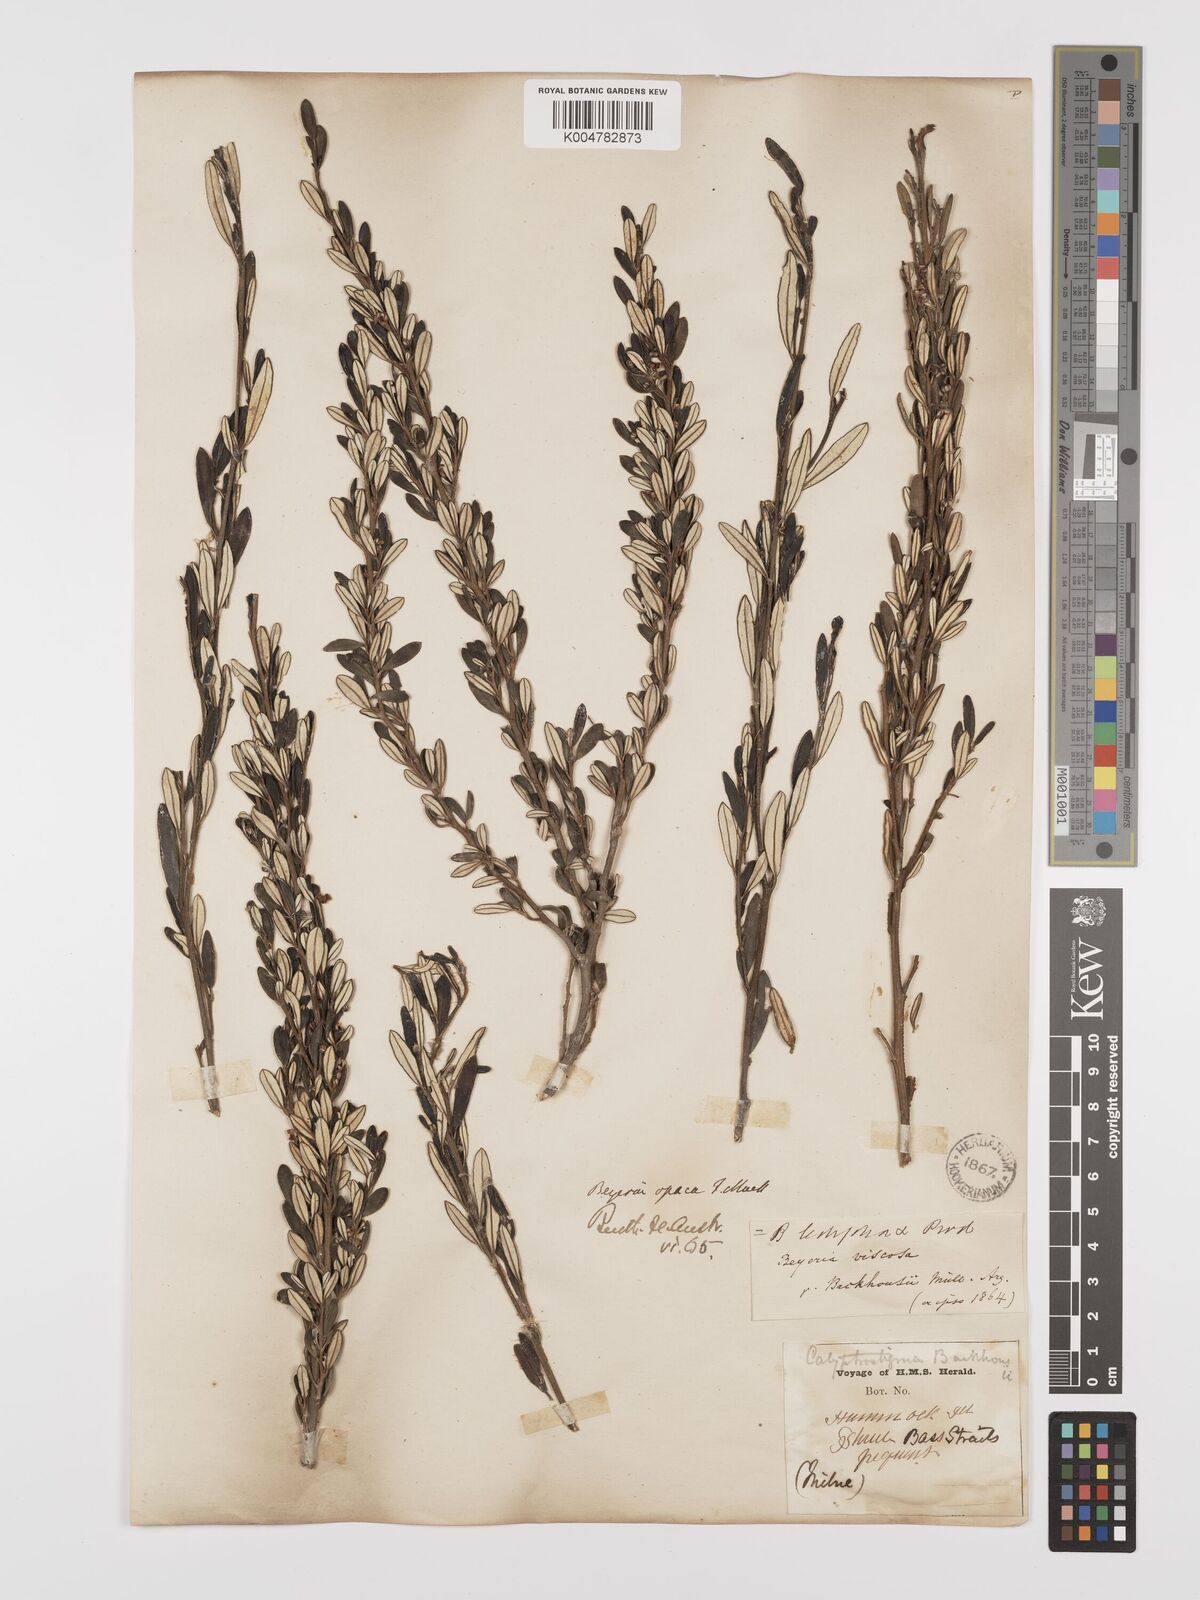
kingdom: Plantae
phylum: Tracheophyta
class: Magnoliopsida
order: Malpighiales
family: Euphorbiaceae
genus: Beyeria
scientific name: Beyeria lechenaultii
